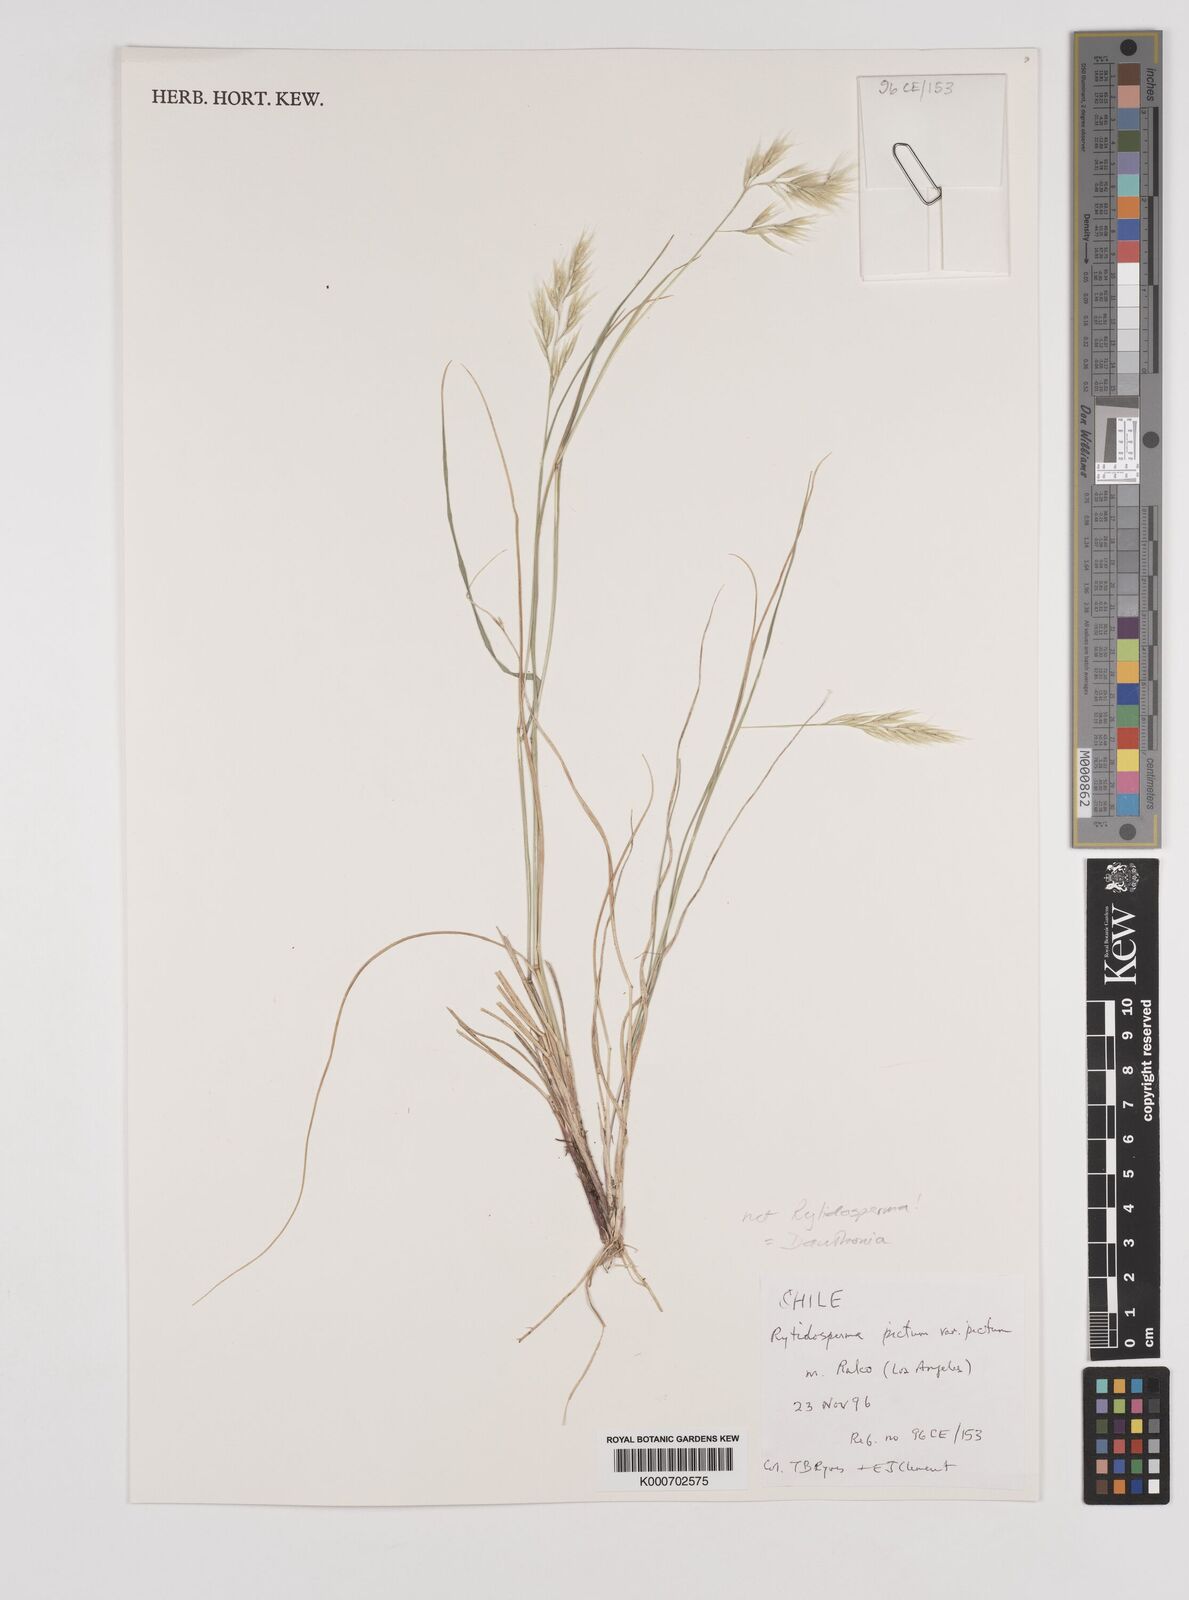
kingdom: Plantae
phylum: Tracheophyta
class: Liliopsida
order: Poales
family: Poaceae
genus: Danthonia
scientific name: Danthonia
